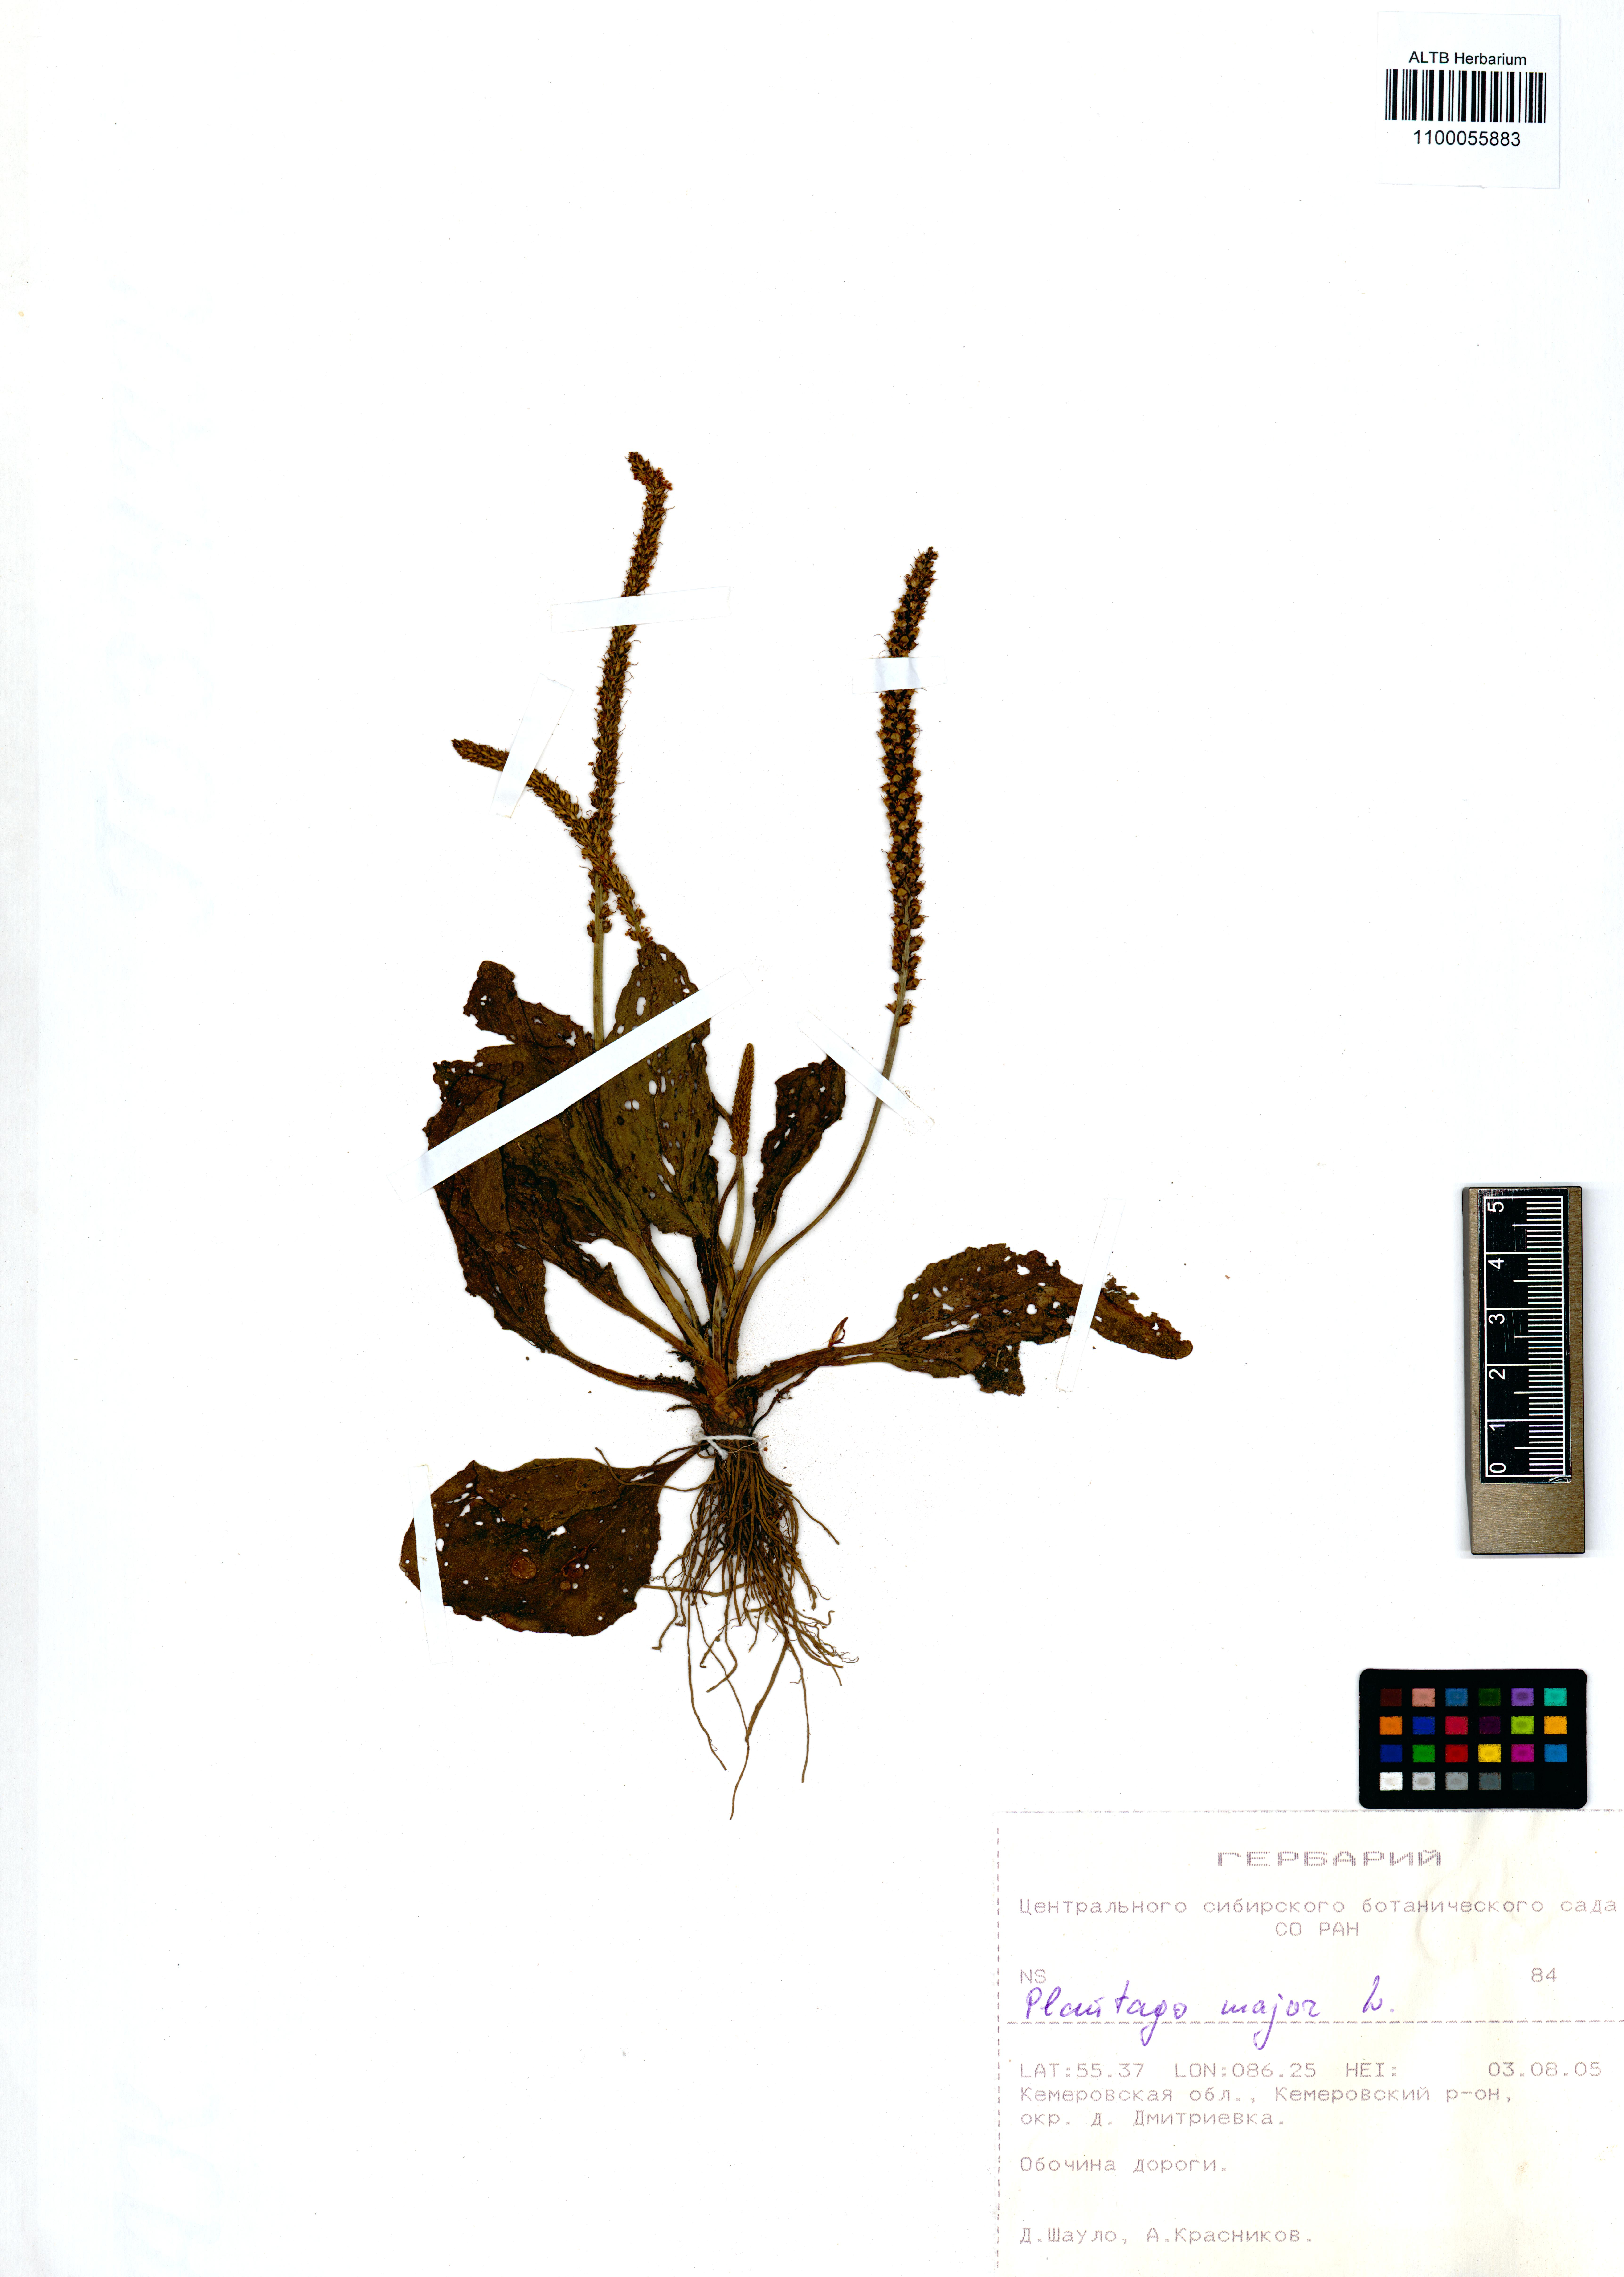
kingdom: Plantae
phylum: Tracheophyta
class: Magnoliopsida
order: Lamiales
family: Plantaginaceae
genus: Plantago
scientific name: Plantago major
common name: Common plantain
